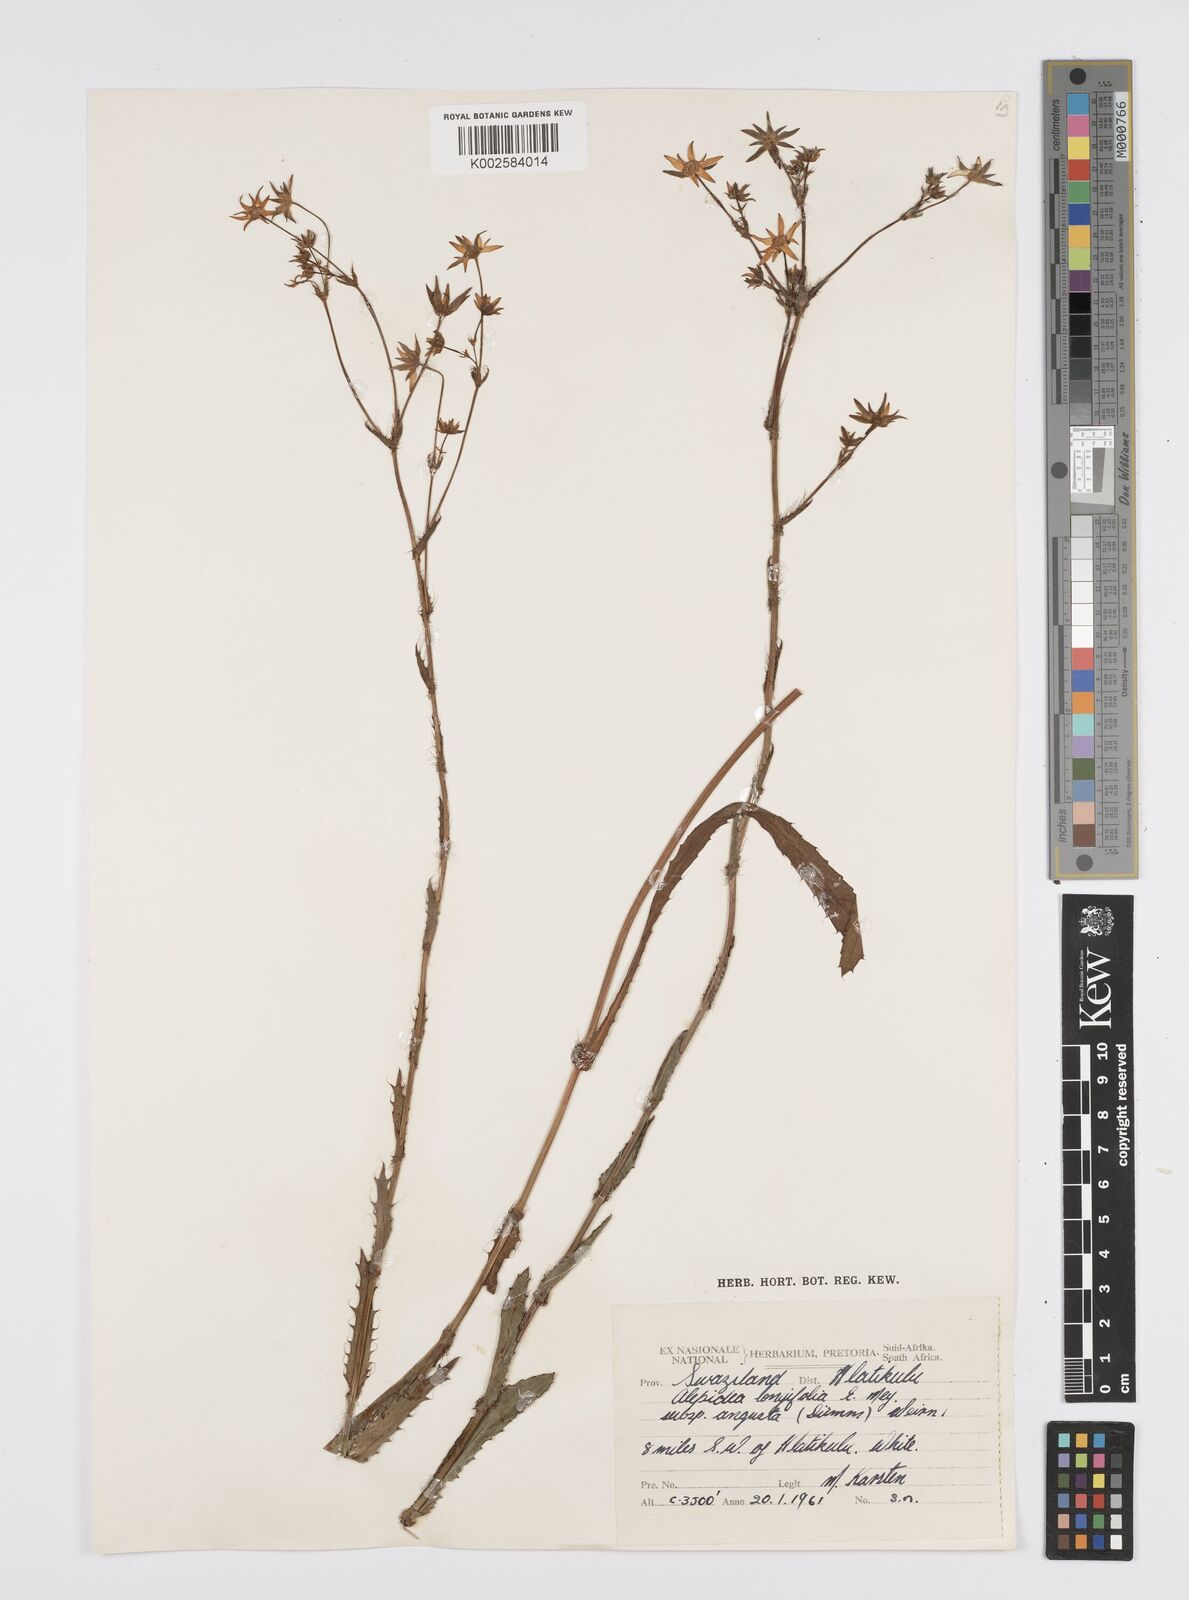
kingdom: Plantae
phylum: Tracheophyta
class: Magnoliopsida
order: Apiales
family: Apiaceae
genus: Alepidea
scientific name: Alepidea
